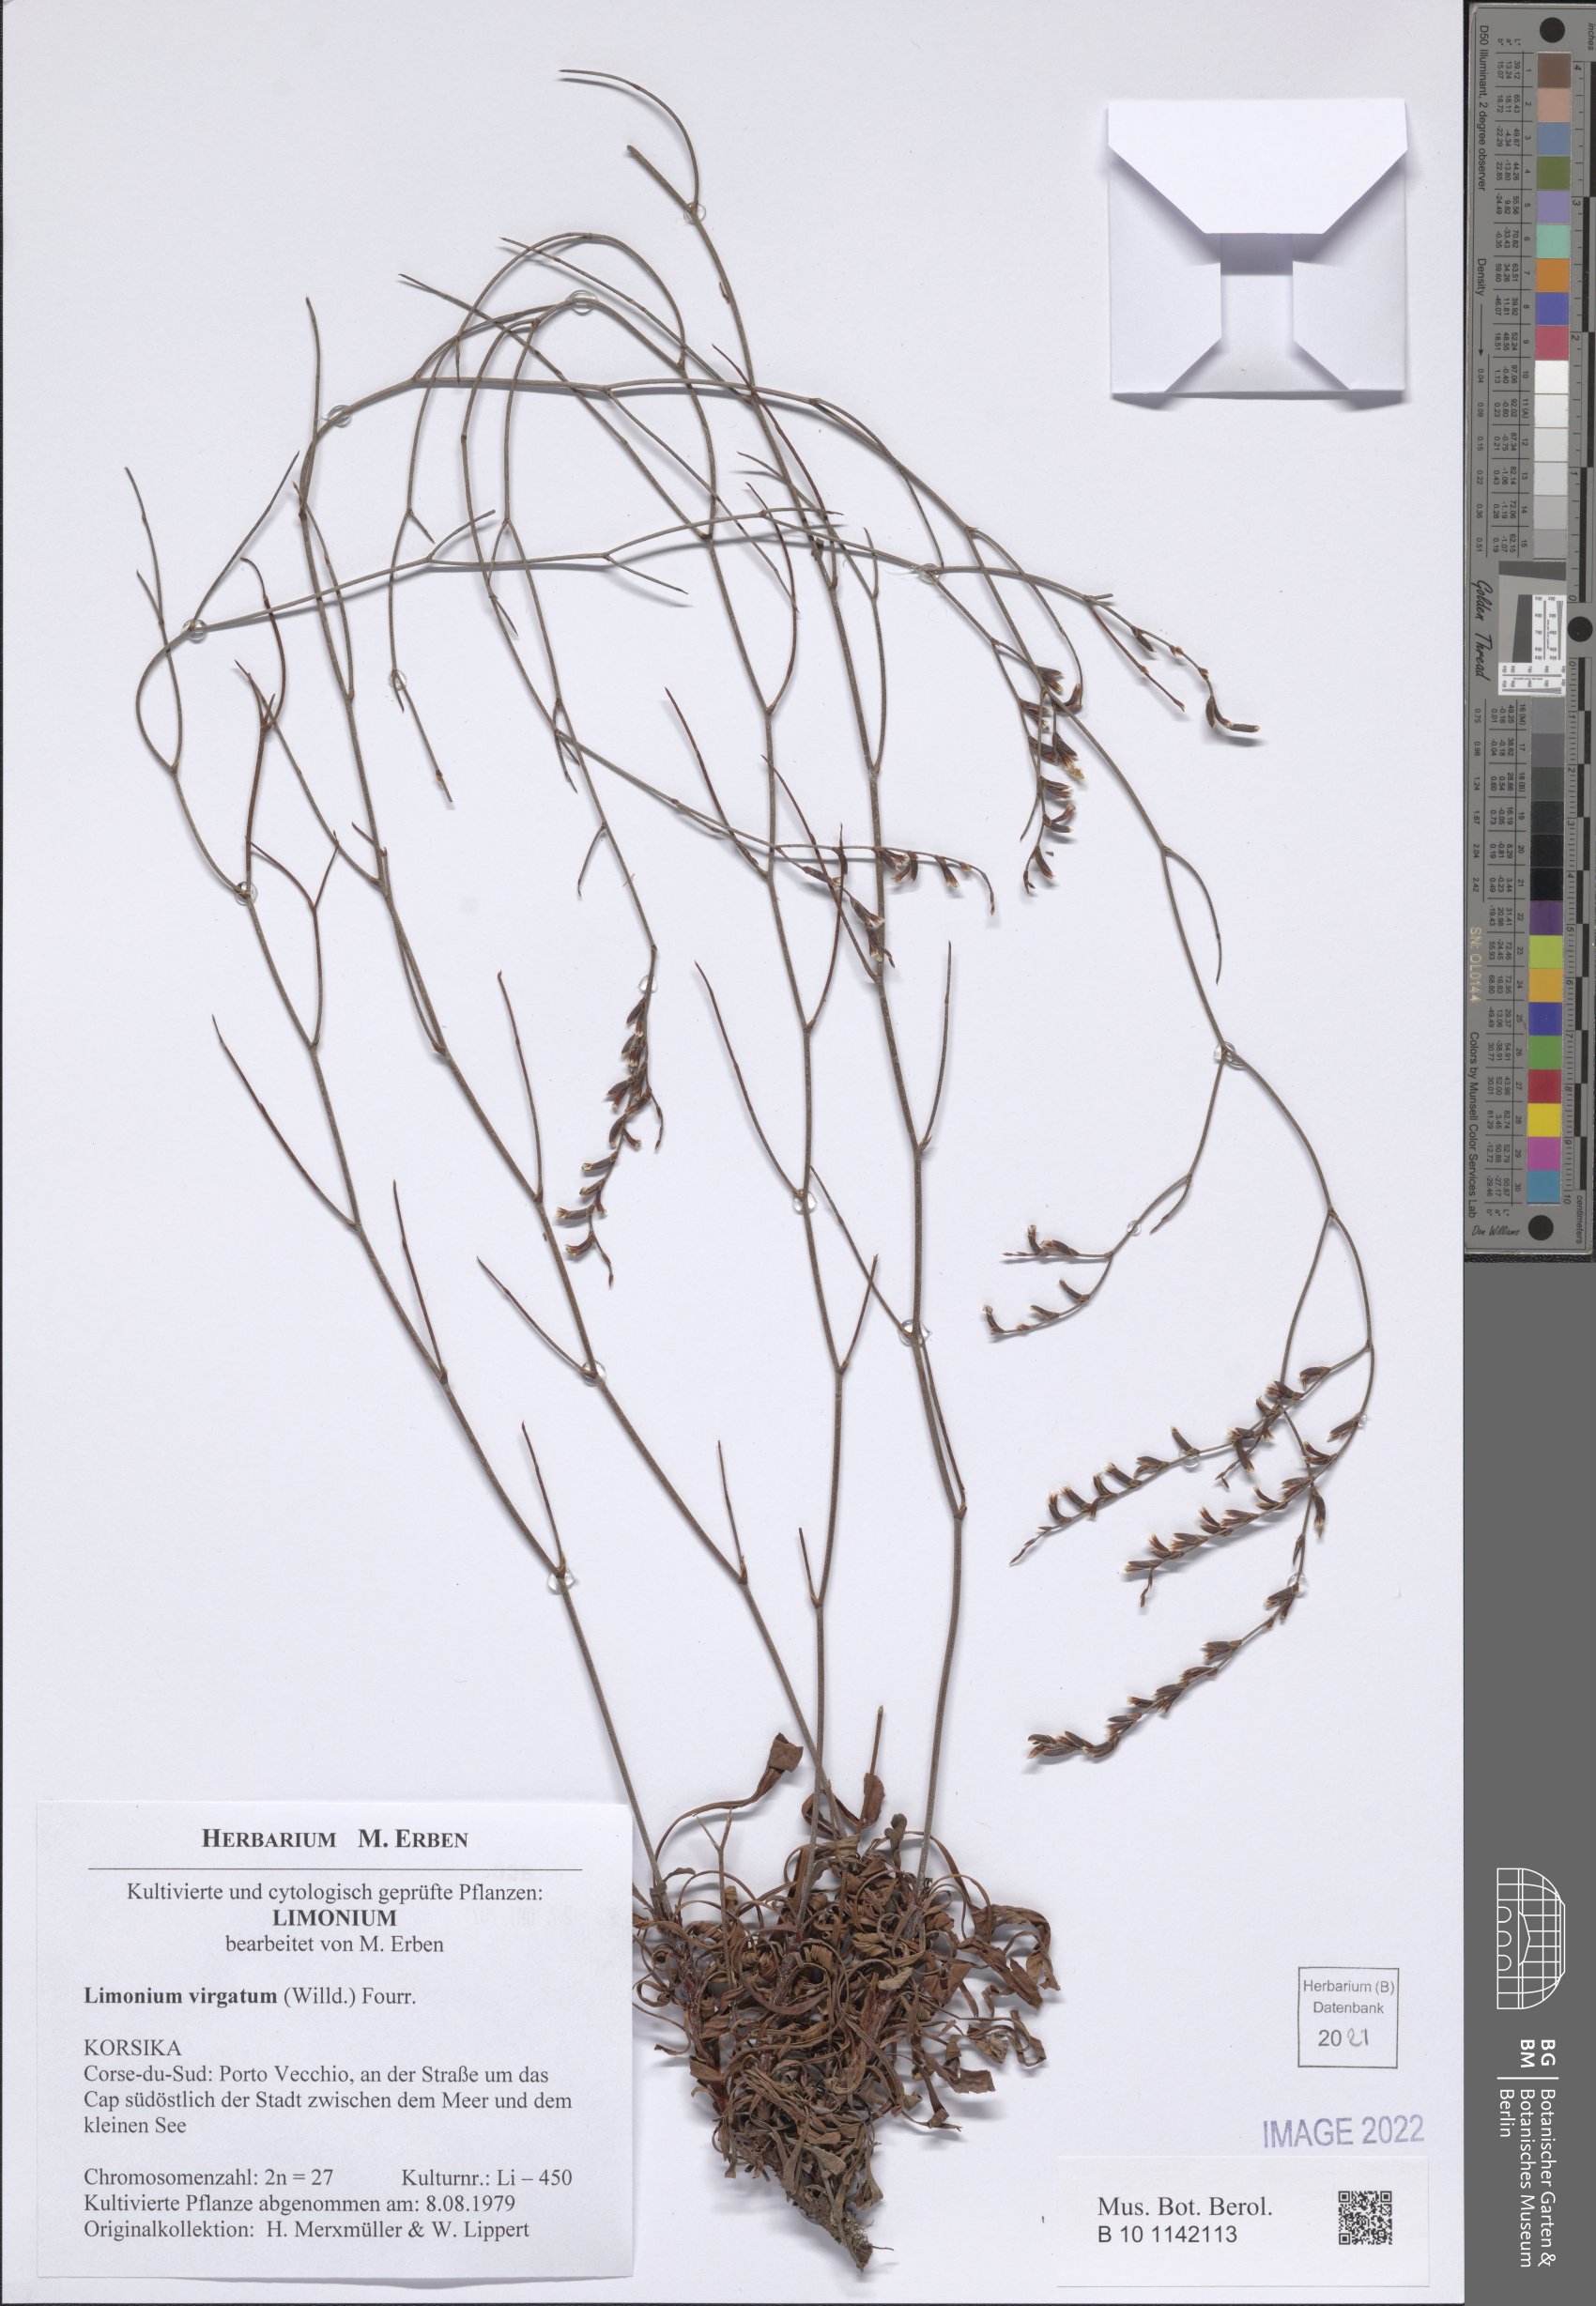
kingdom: Plantae
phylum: Tracheophyta
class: Magnoliopsida
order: Caryophyllales
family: Plumbaginaceae
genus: Limonium
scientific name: Limonium virgatum
